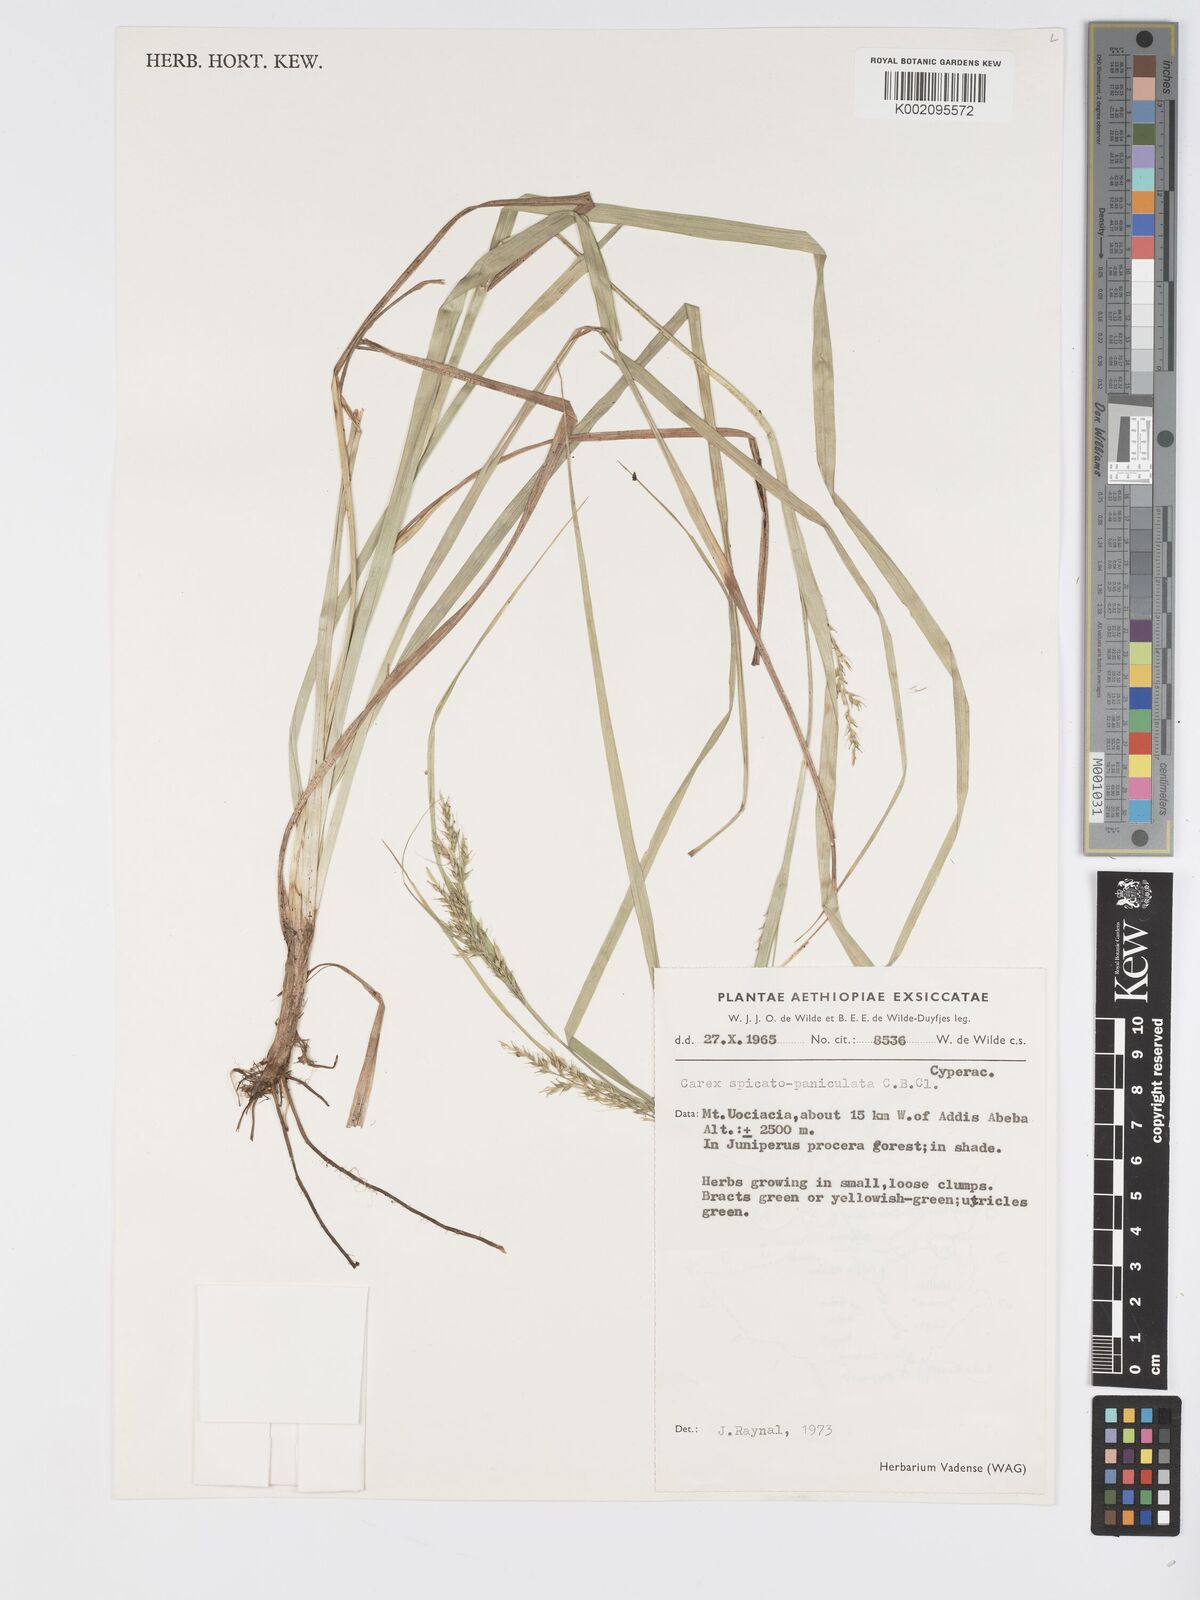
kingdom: Plantae
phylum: Tracheophyta
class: Liliopsida
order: Poales
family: Cyperaceae
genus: Carex
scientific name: Carex chlorosaccus
